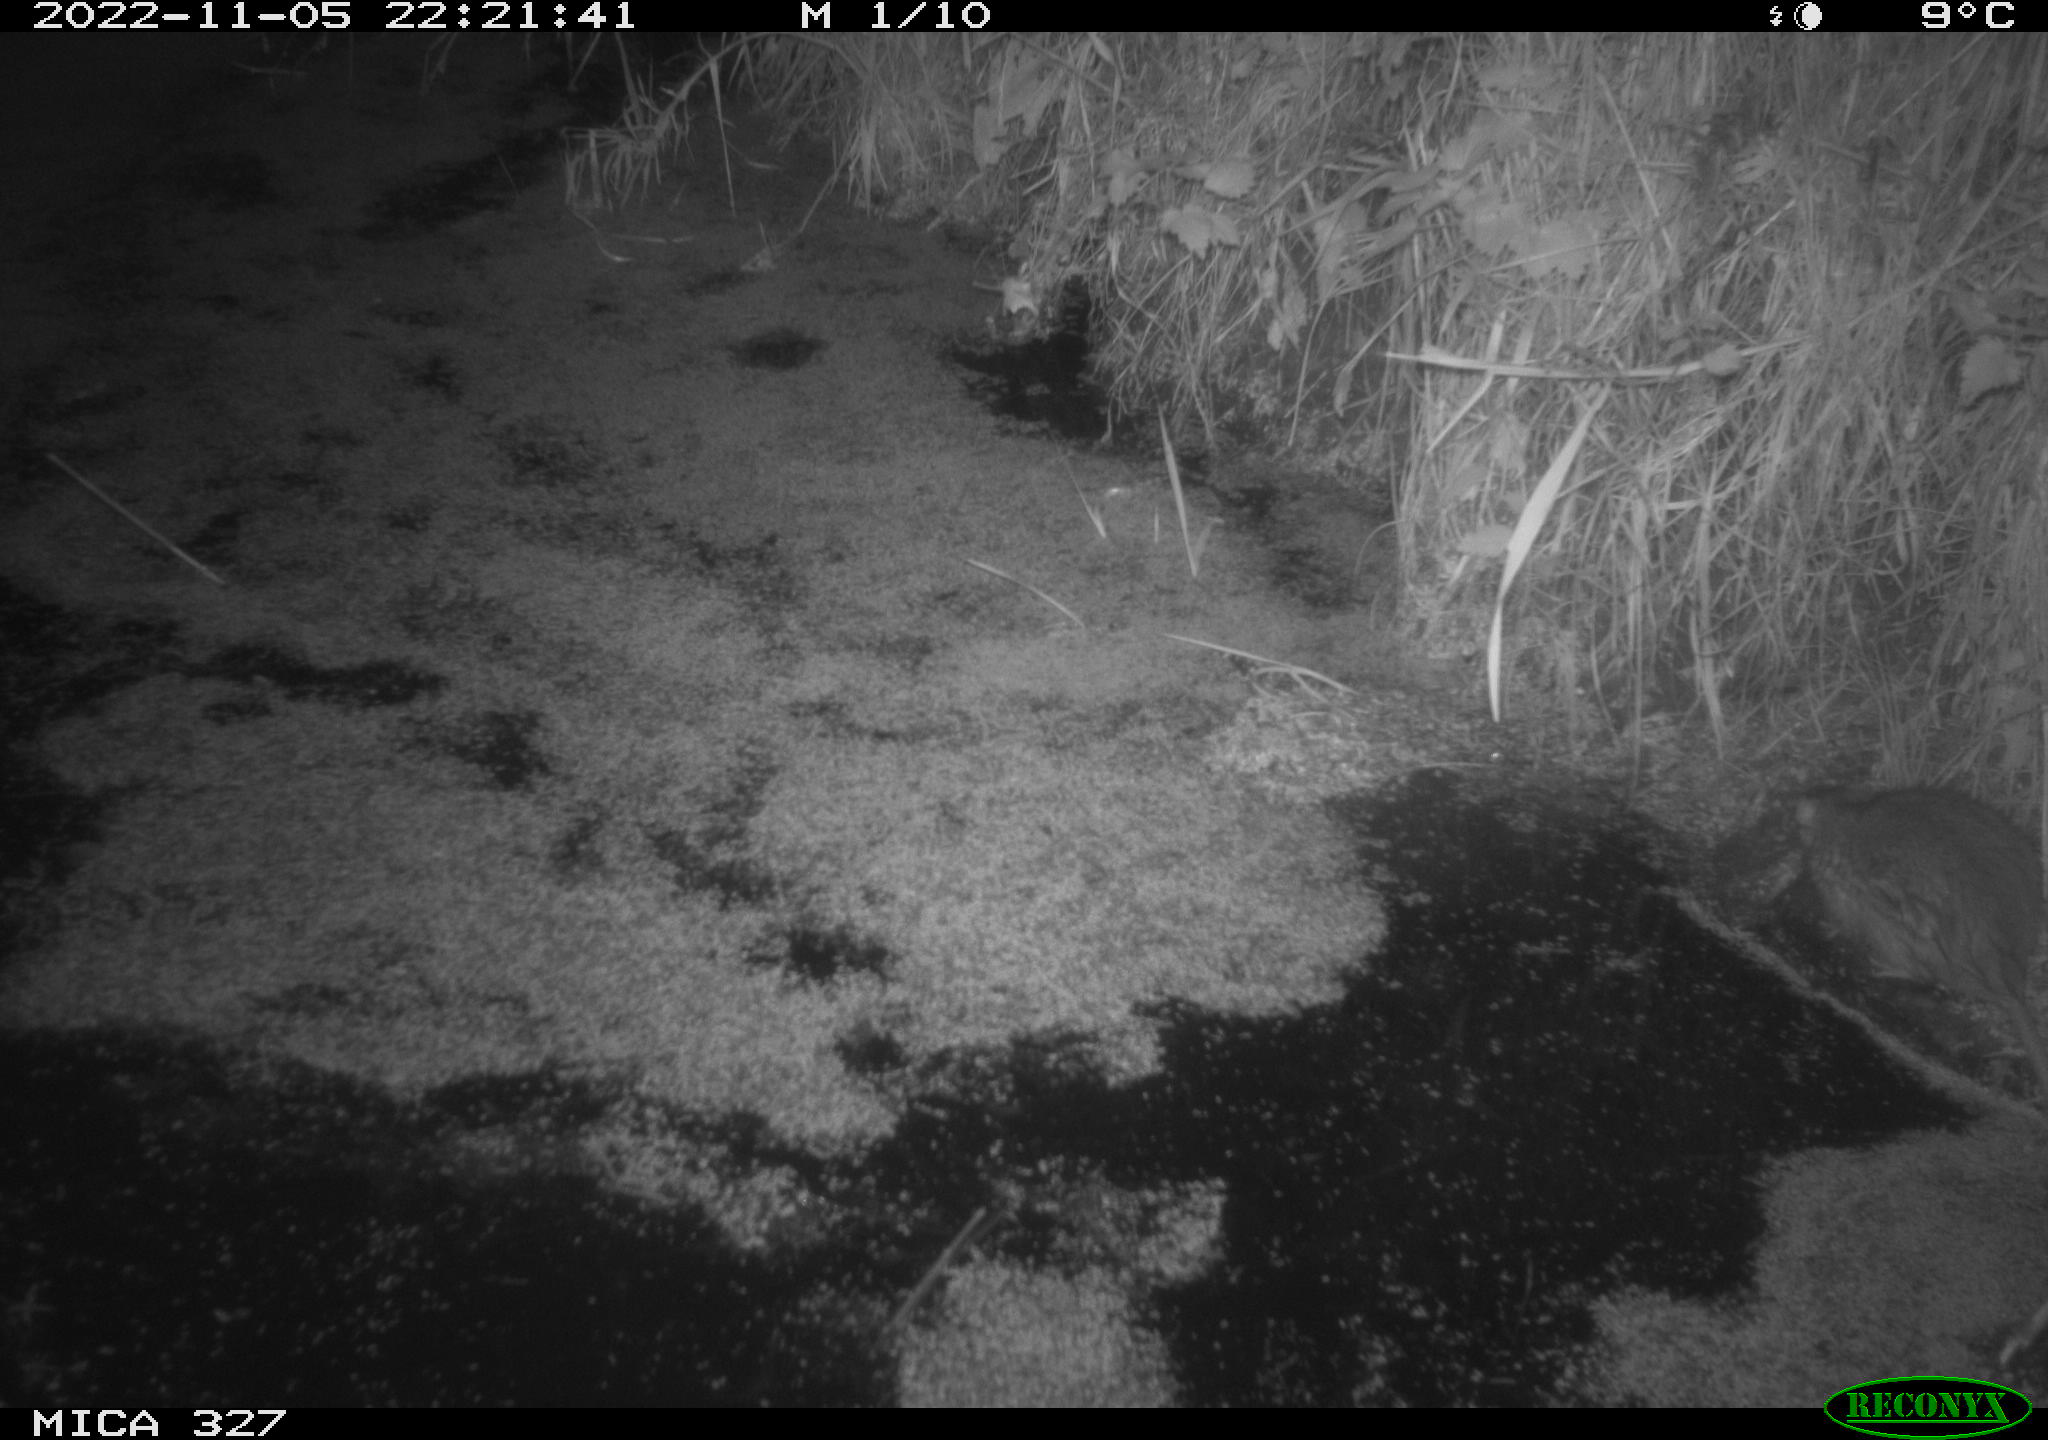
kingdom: Animalia
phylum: Chordata
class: Mammalia
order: Rodentia
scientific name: Rodentia
